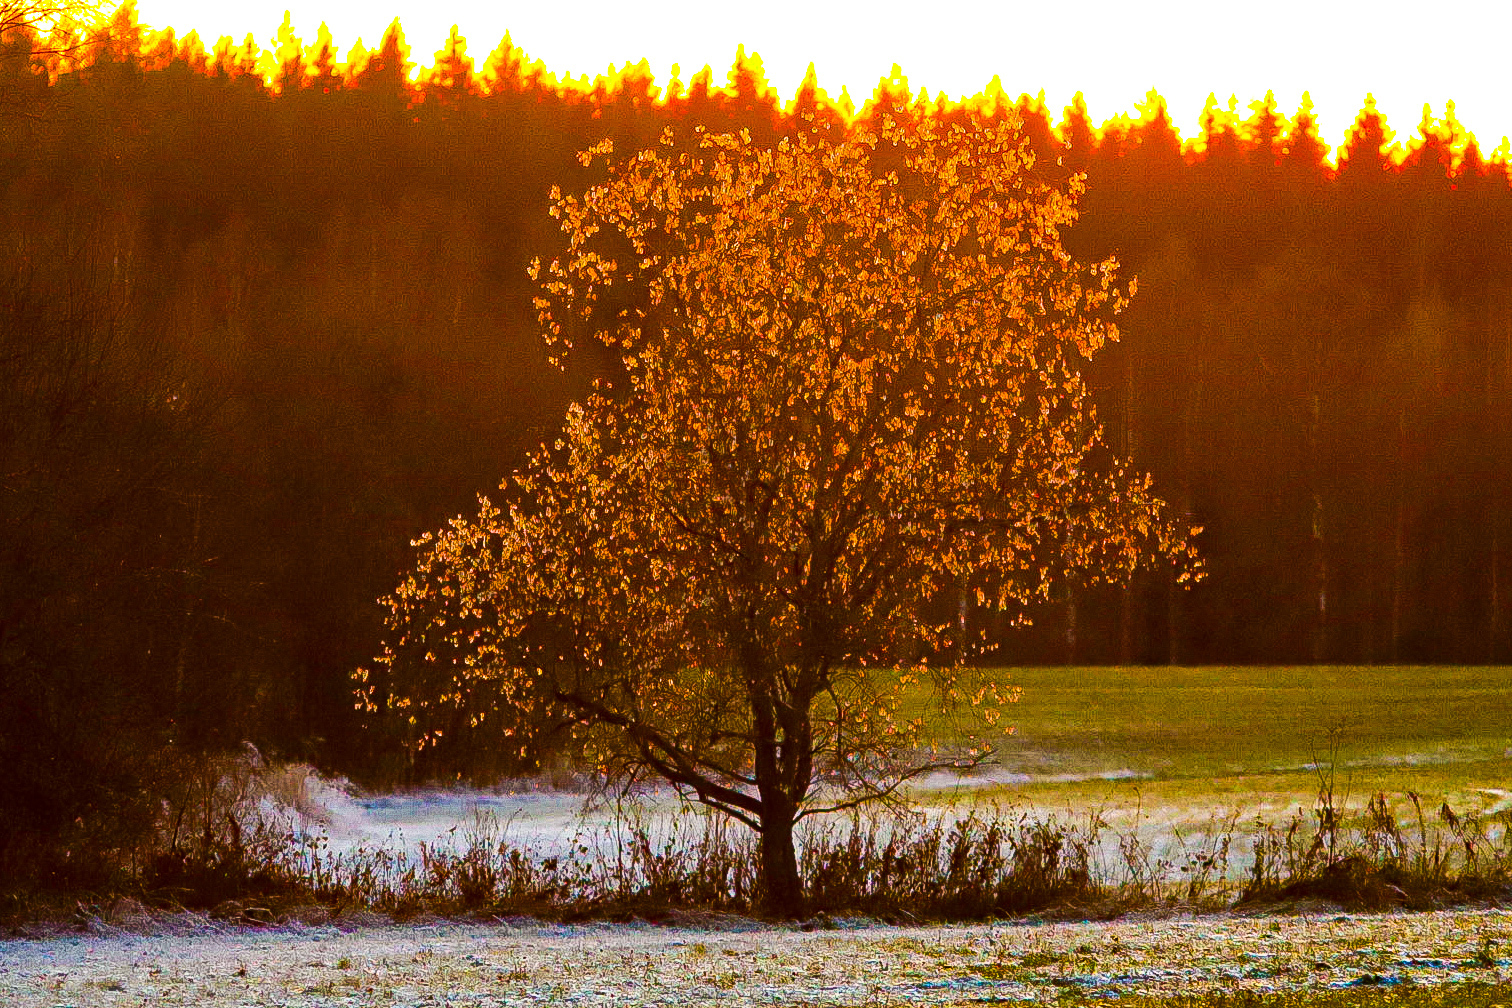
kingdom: Plantae
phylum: Tracheophyta
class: Magnoliopsida
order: Malpighiales
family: Salicaceae
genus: Salix
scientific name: Salix pentandra
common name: Bay willow
